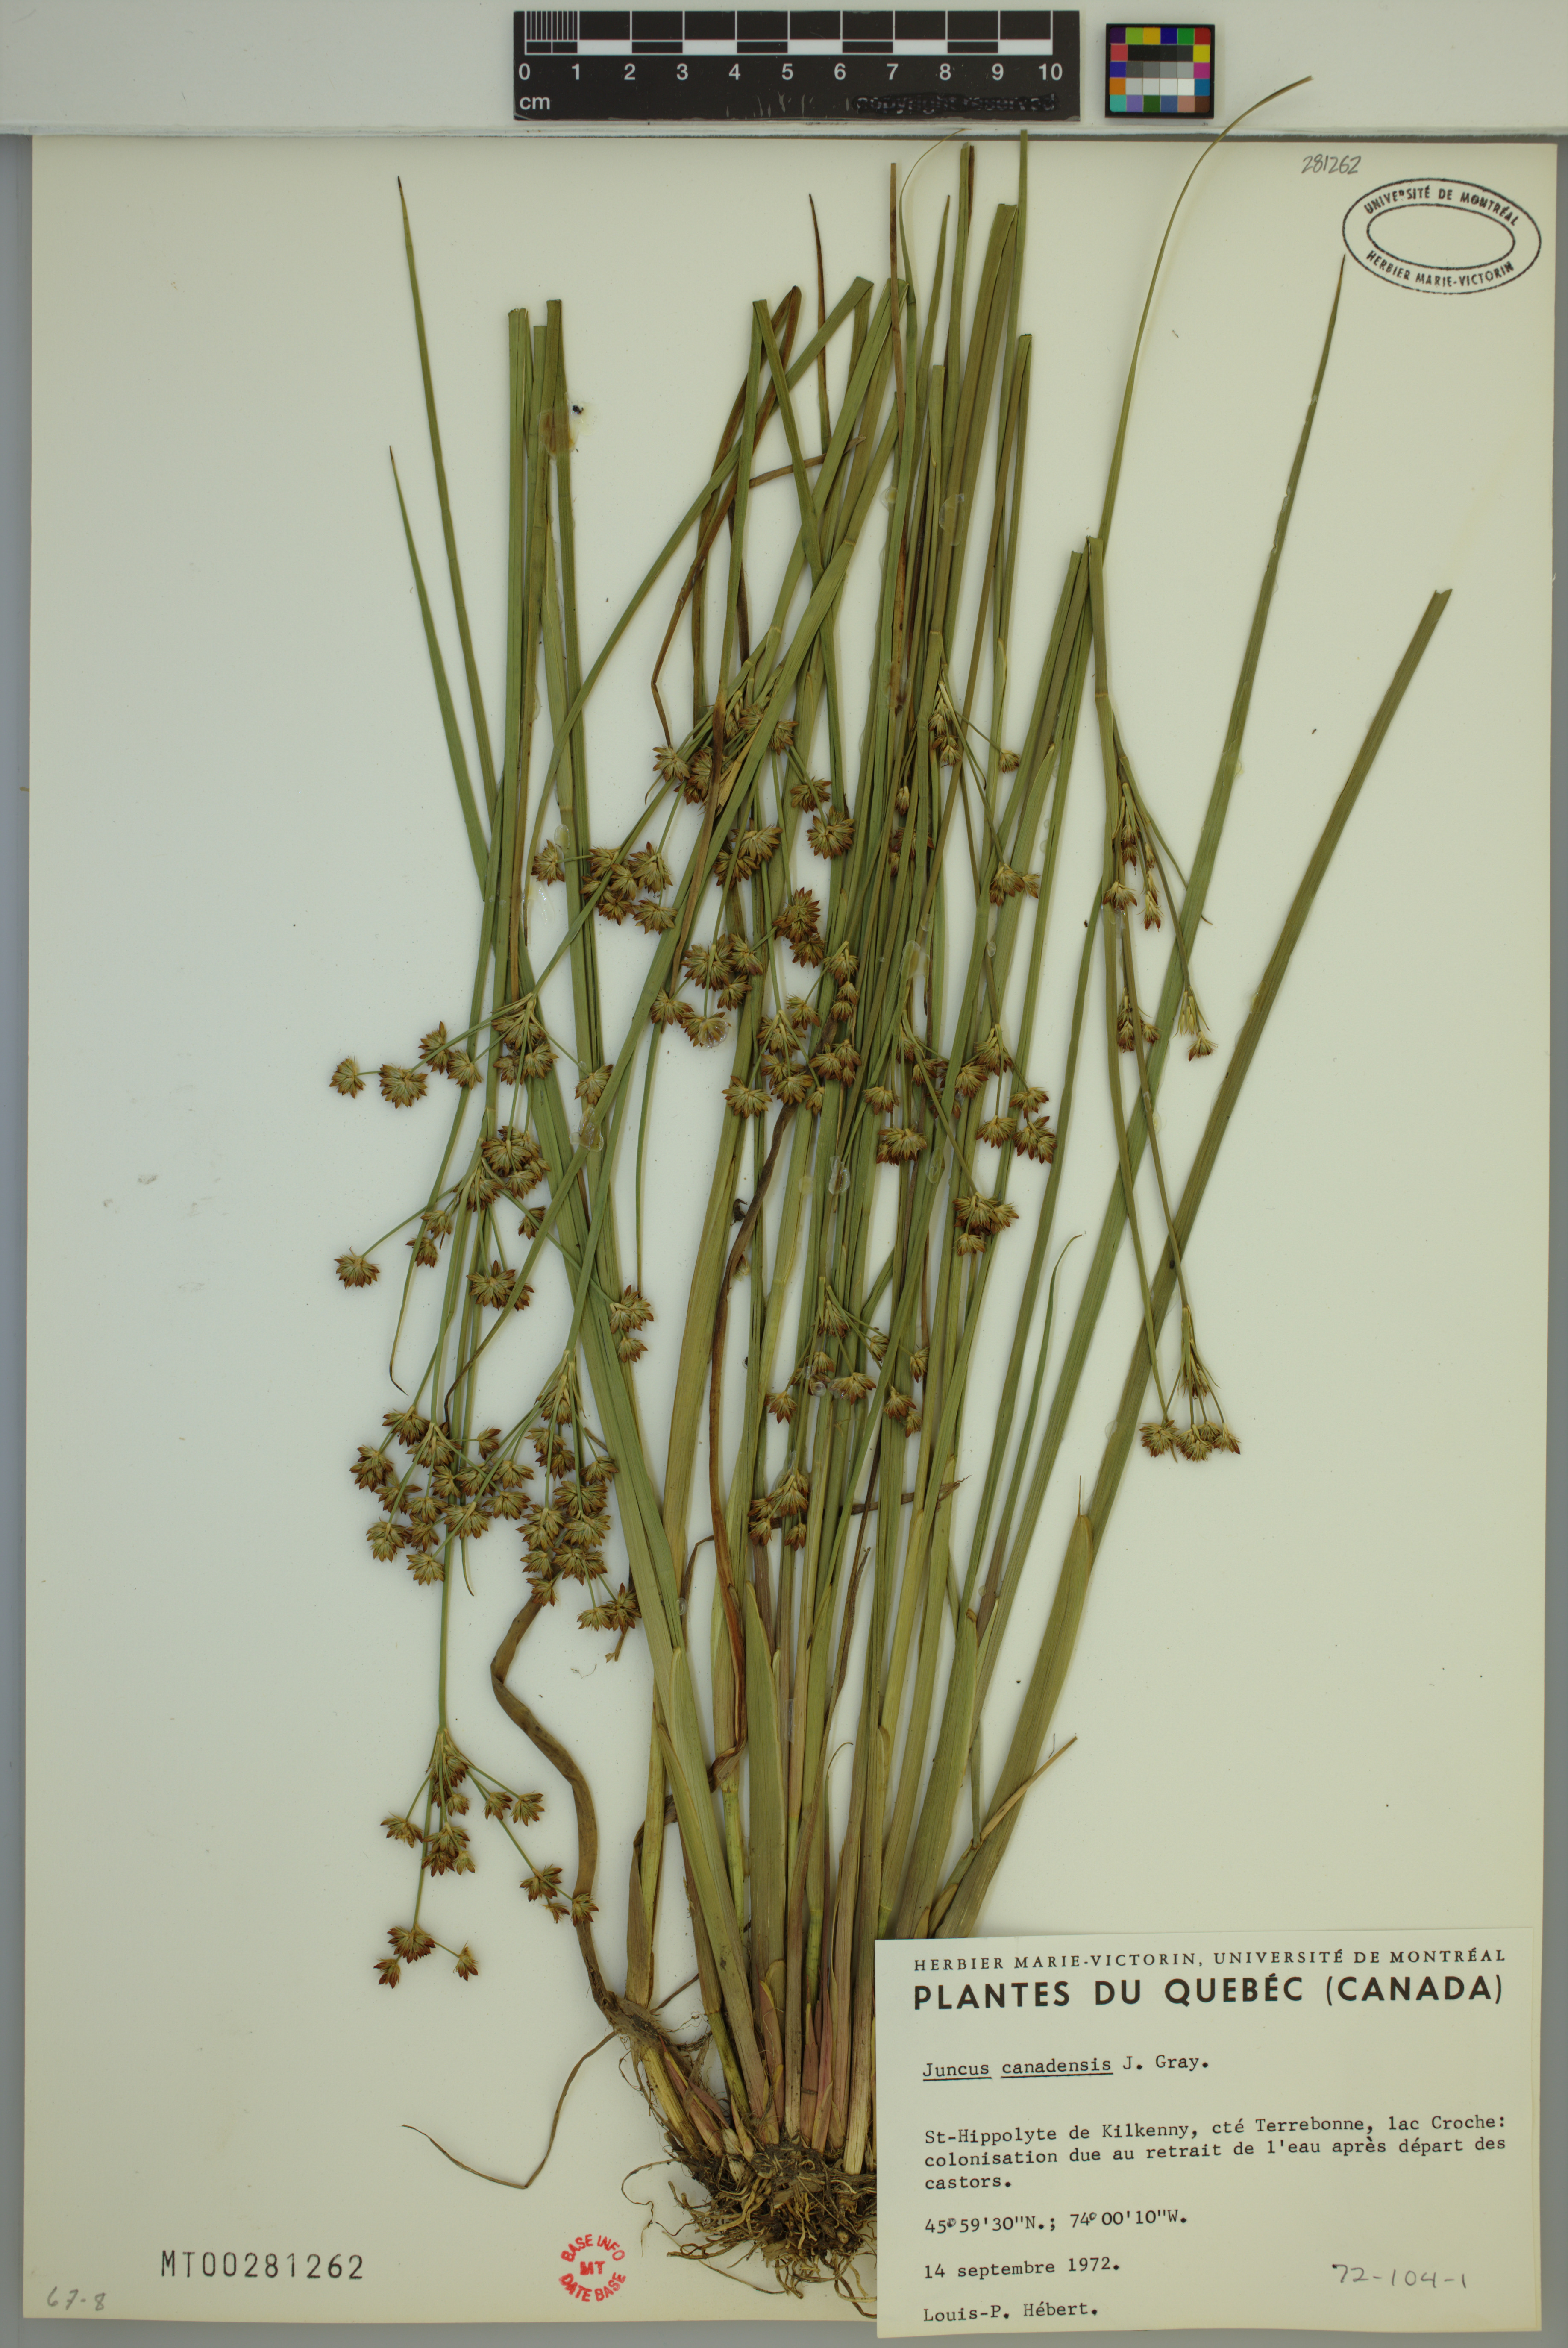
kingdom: Plantae
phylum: Tracheophyta
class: Liliopsida
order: Poales
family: Juncaceae
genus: Juncus
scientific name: Juncus canadensis
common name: Canada rush
